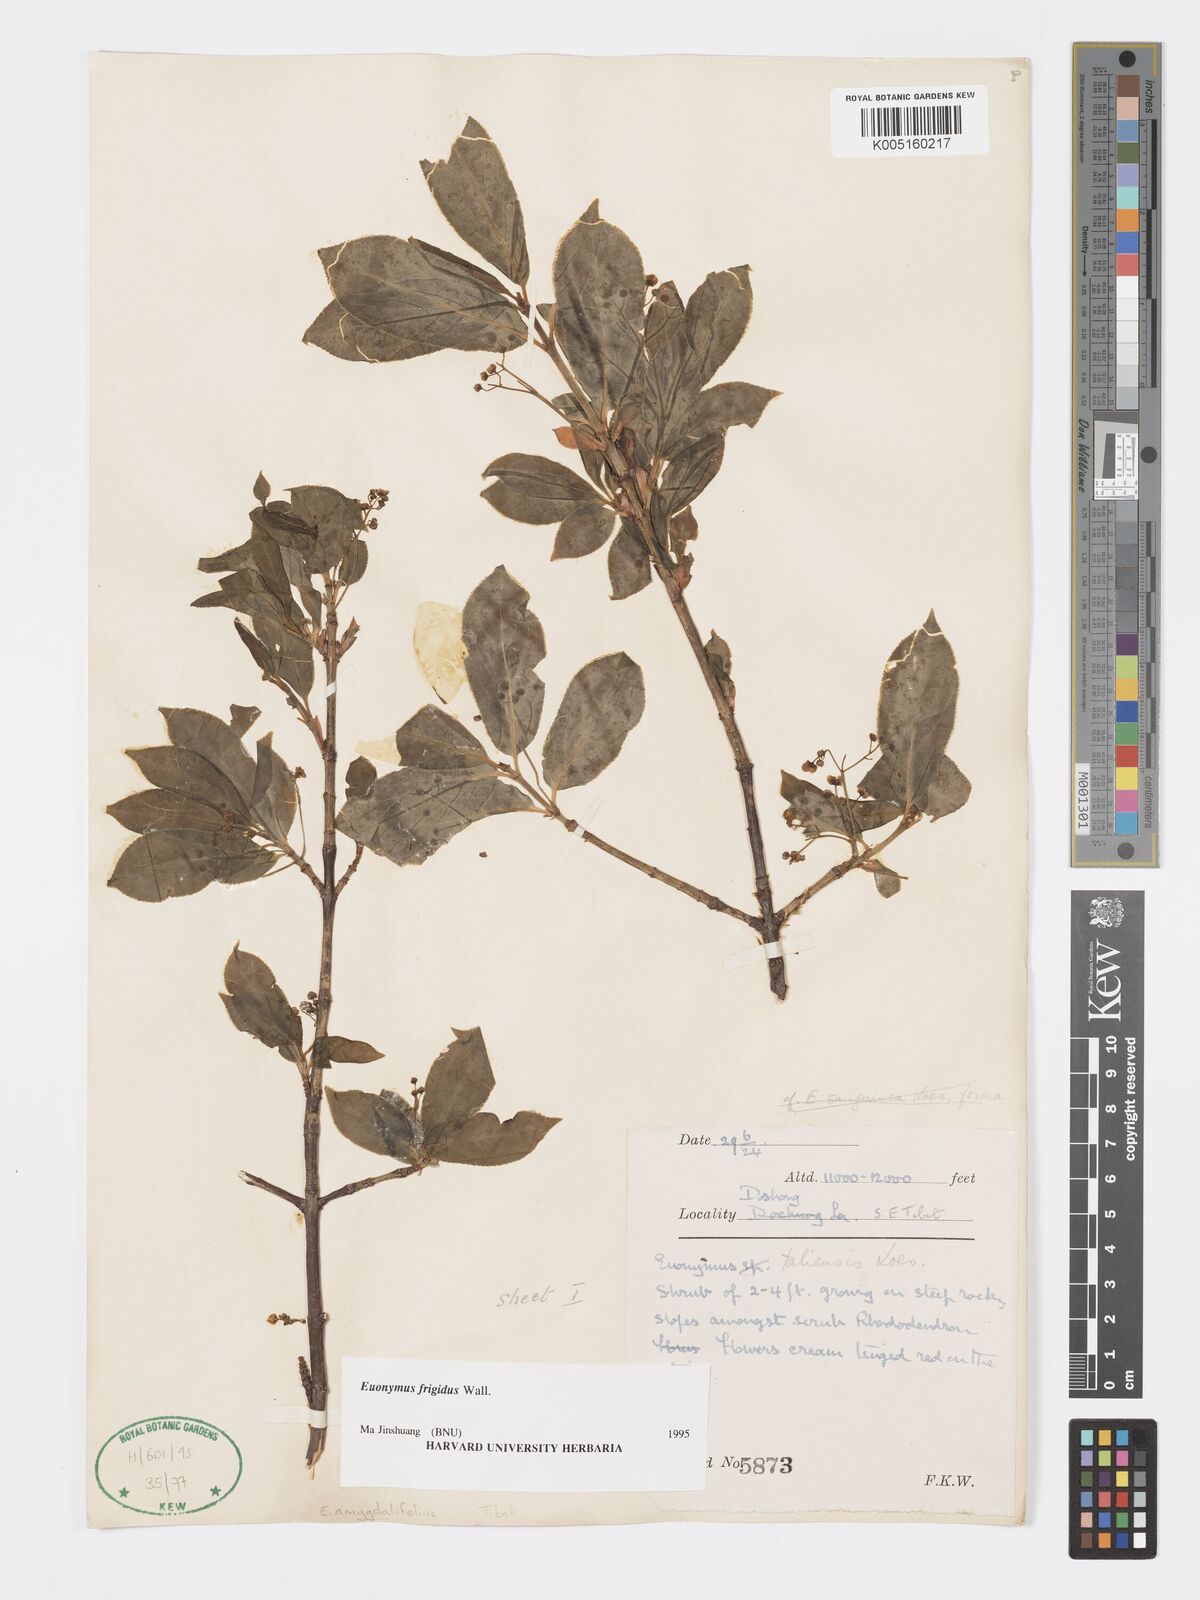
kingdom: Plantae
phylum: Tracheophyta
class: Magnoliopsida
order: Celastrales
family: Celastraceae
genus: Euonymus
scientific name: Euonymus frigidus
